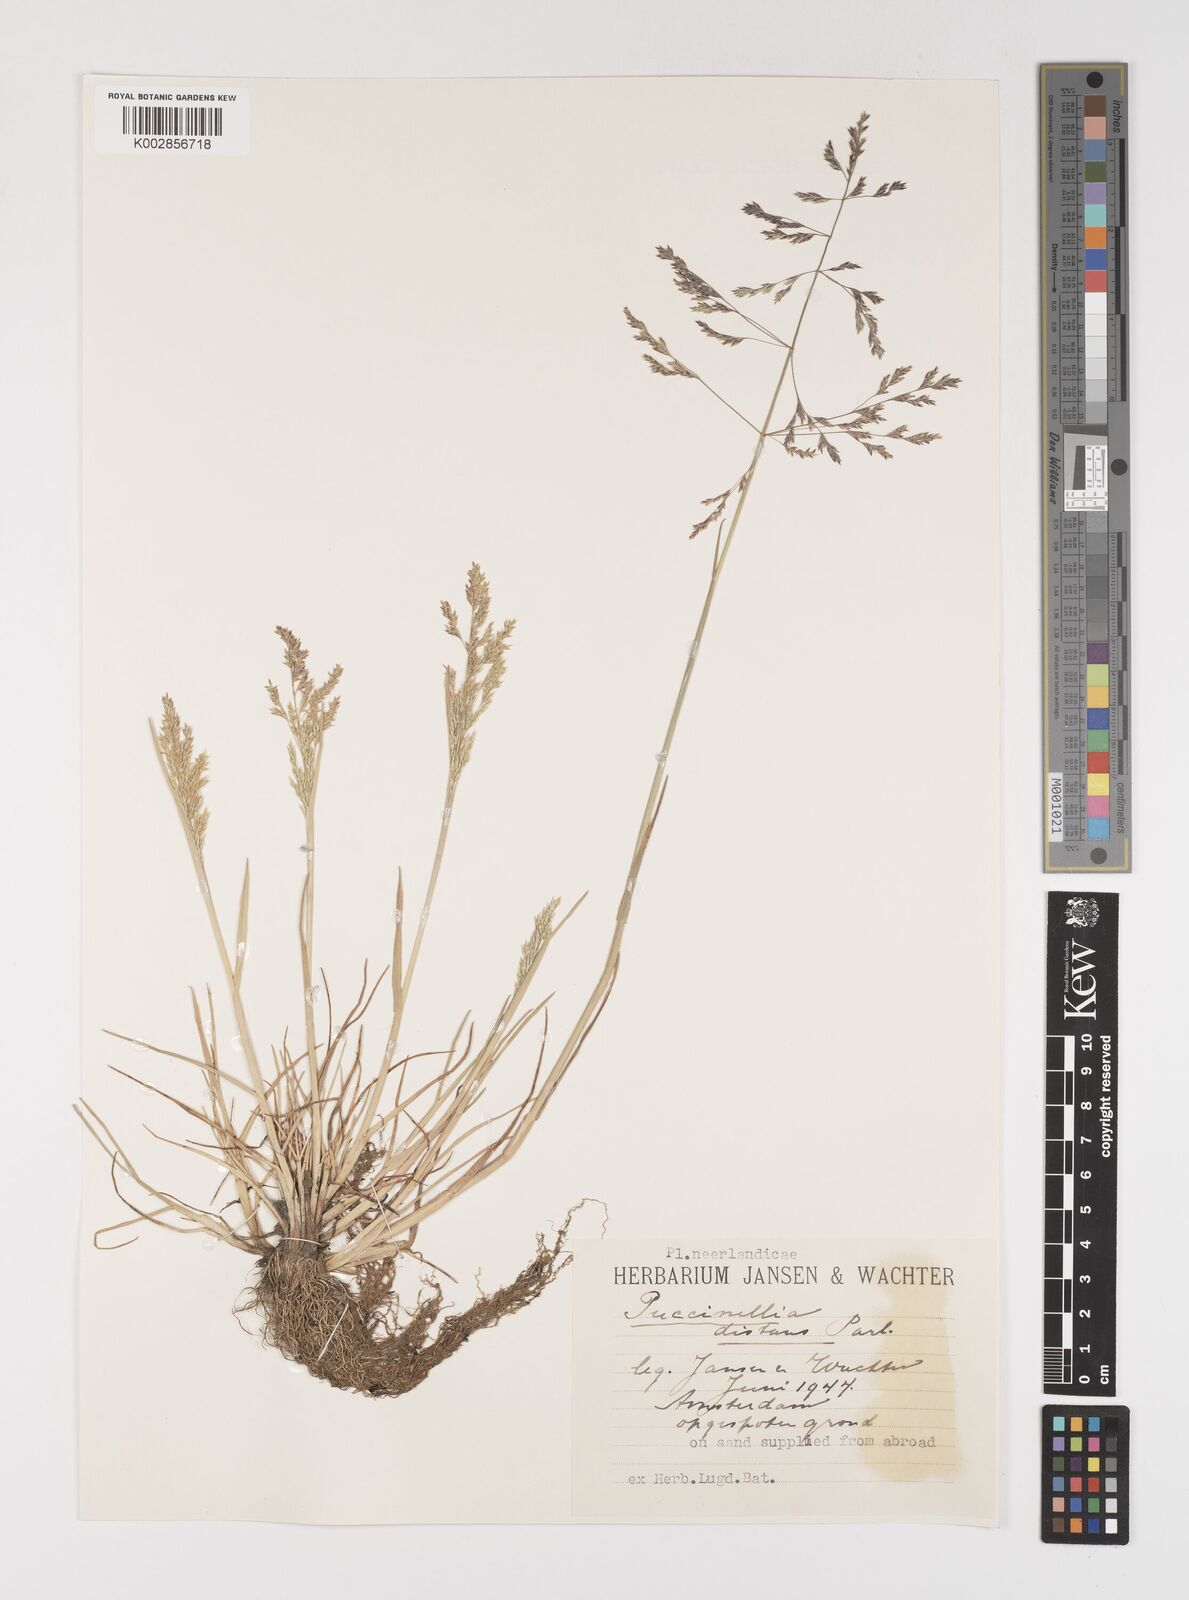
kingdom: Plantae
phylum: Tracheophyta
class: Liliopsida
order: Poales
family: Poaceae
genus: Puccinellia
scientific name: Puccinellia
